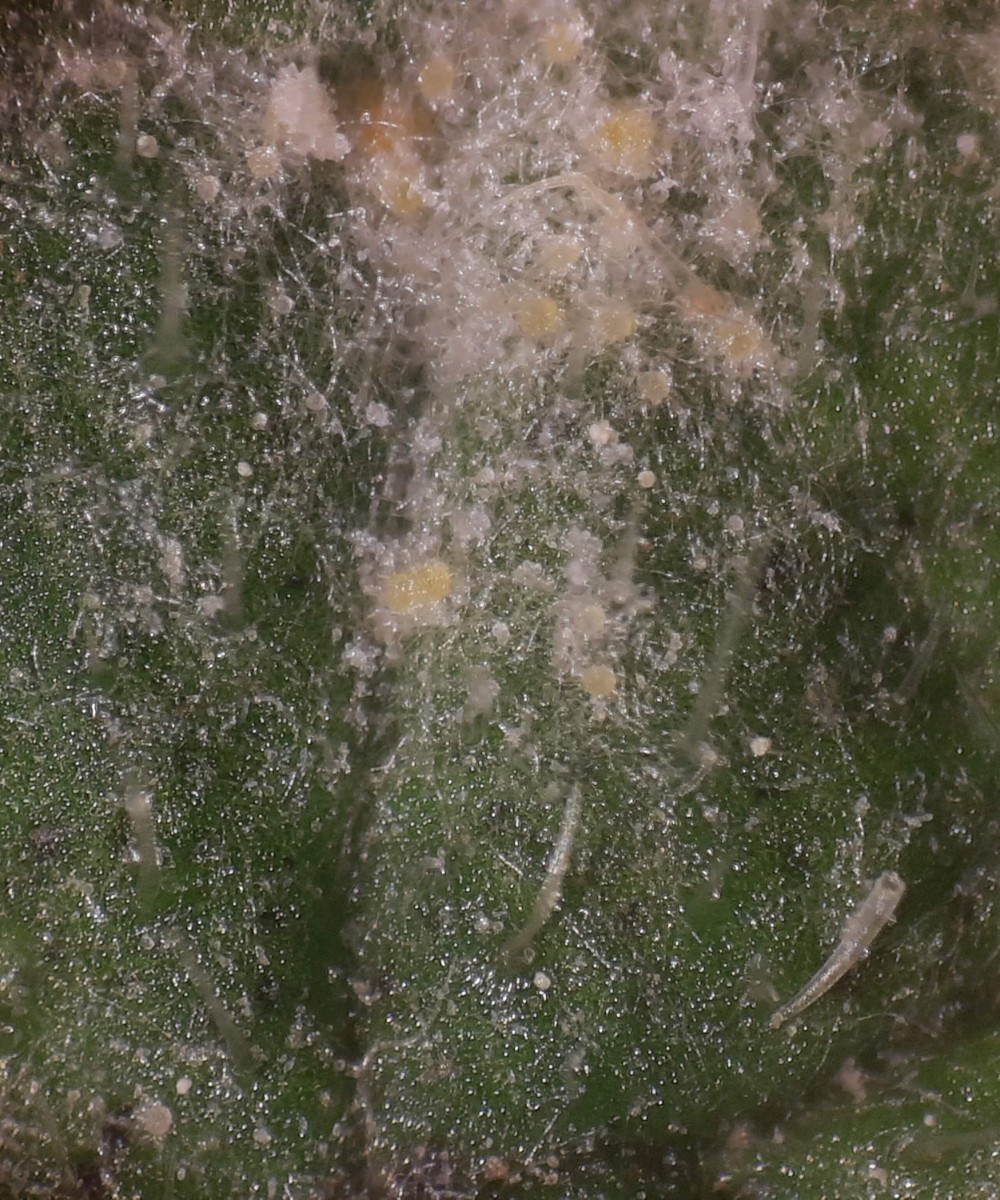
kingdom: Fungi
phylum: Ascomycota
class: Leotiomycetes
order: Helotiales
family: Erysiphaceae
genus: Golovinomyces
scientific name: Golovinomyces asperifoliorum
